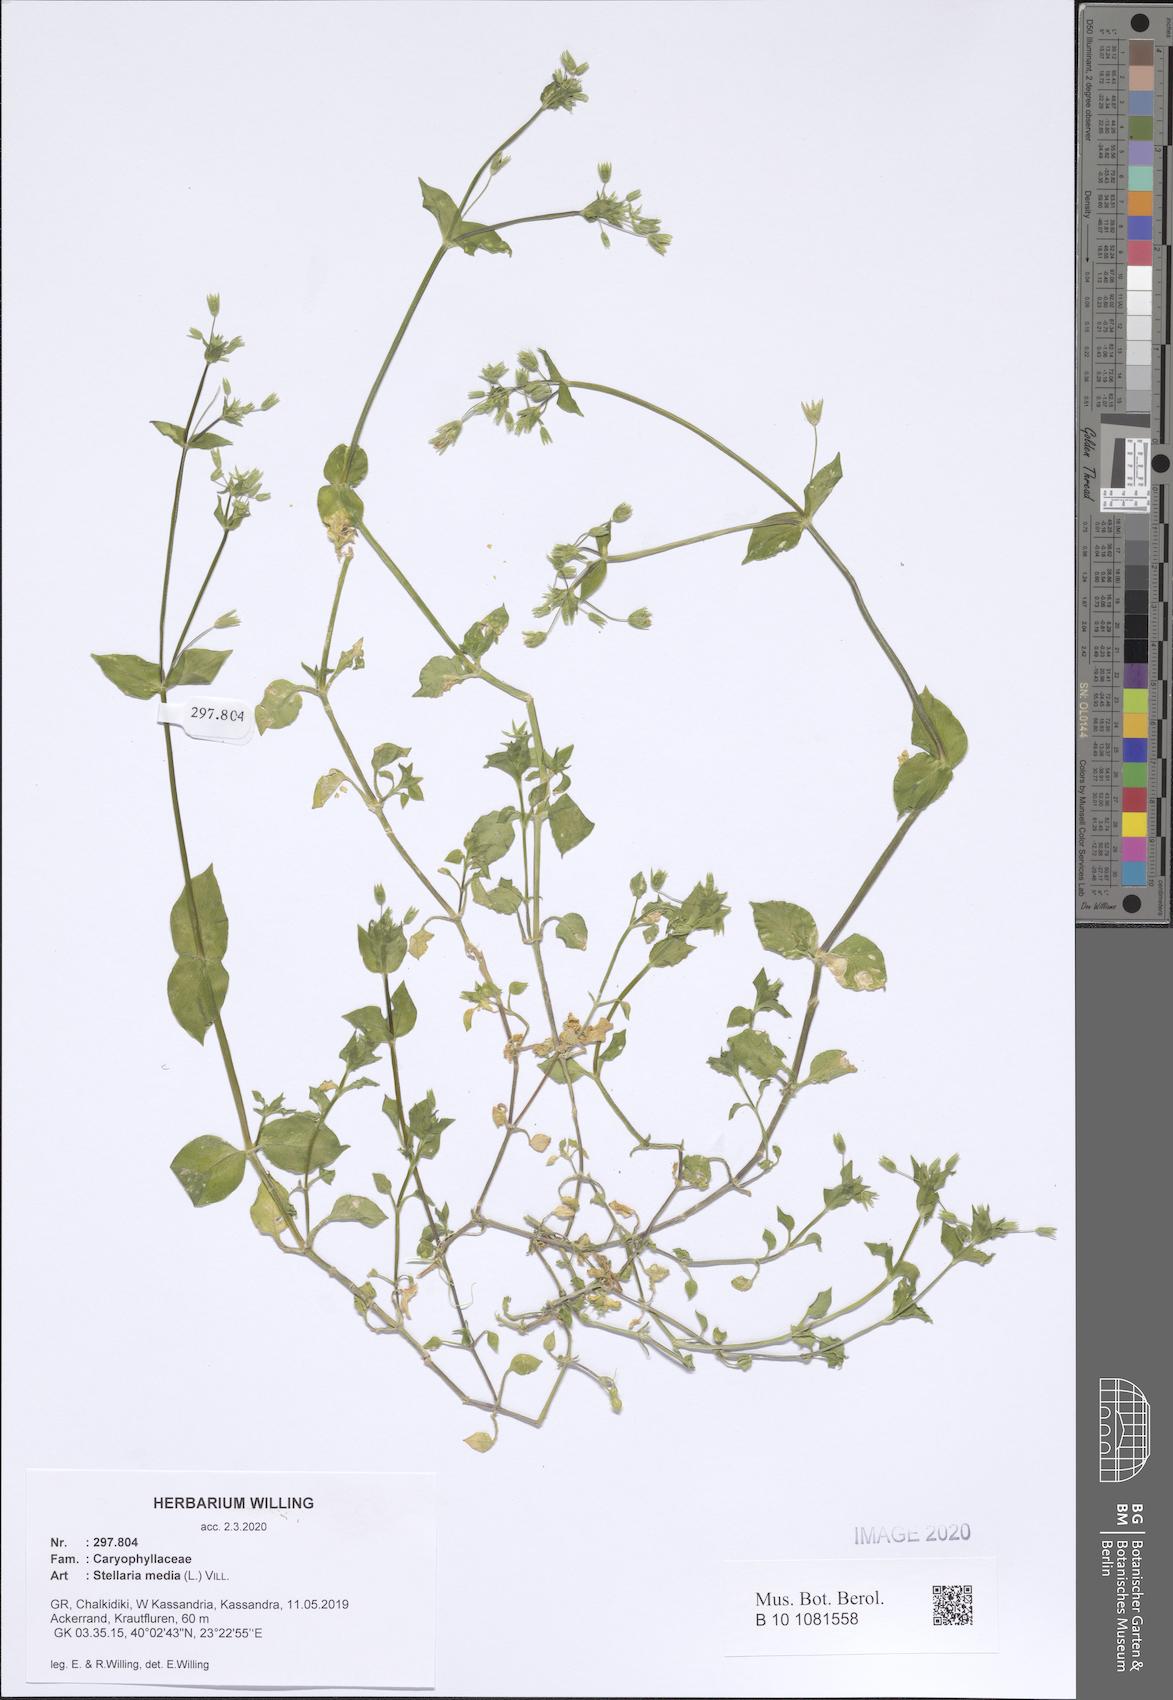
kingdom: Plantae
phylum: Tracheophyta
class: Magnoliopsida
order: Caryophyllales
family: Caryophyllaceae
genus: Stellaria
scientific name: Stellaria media
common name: Common chickweed
